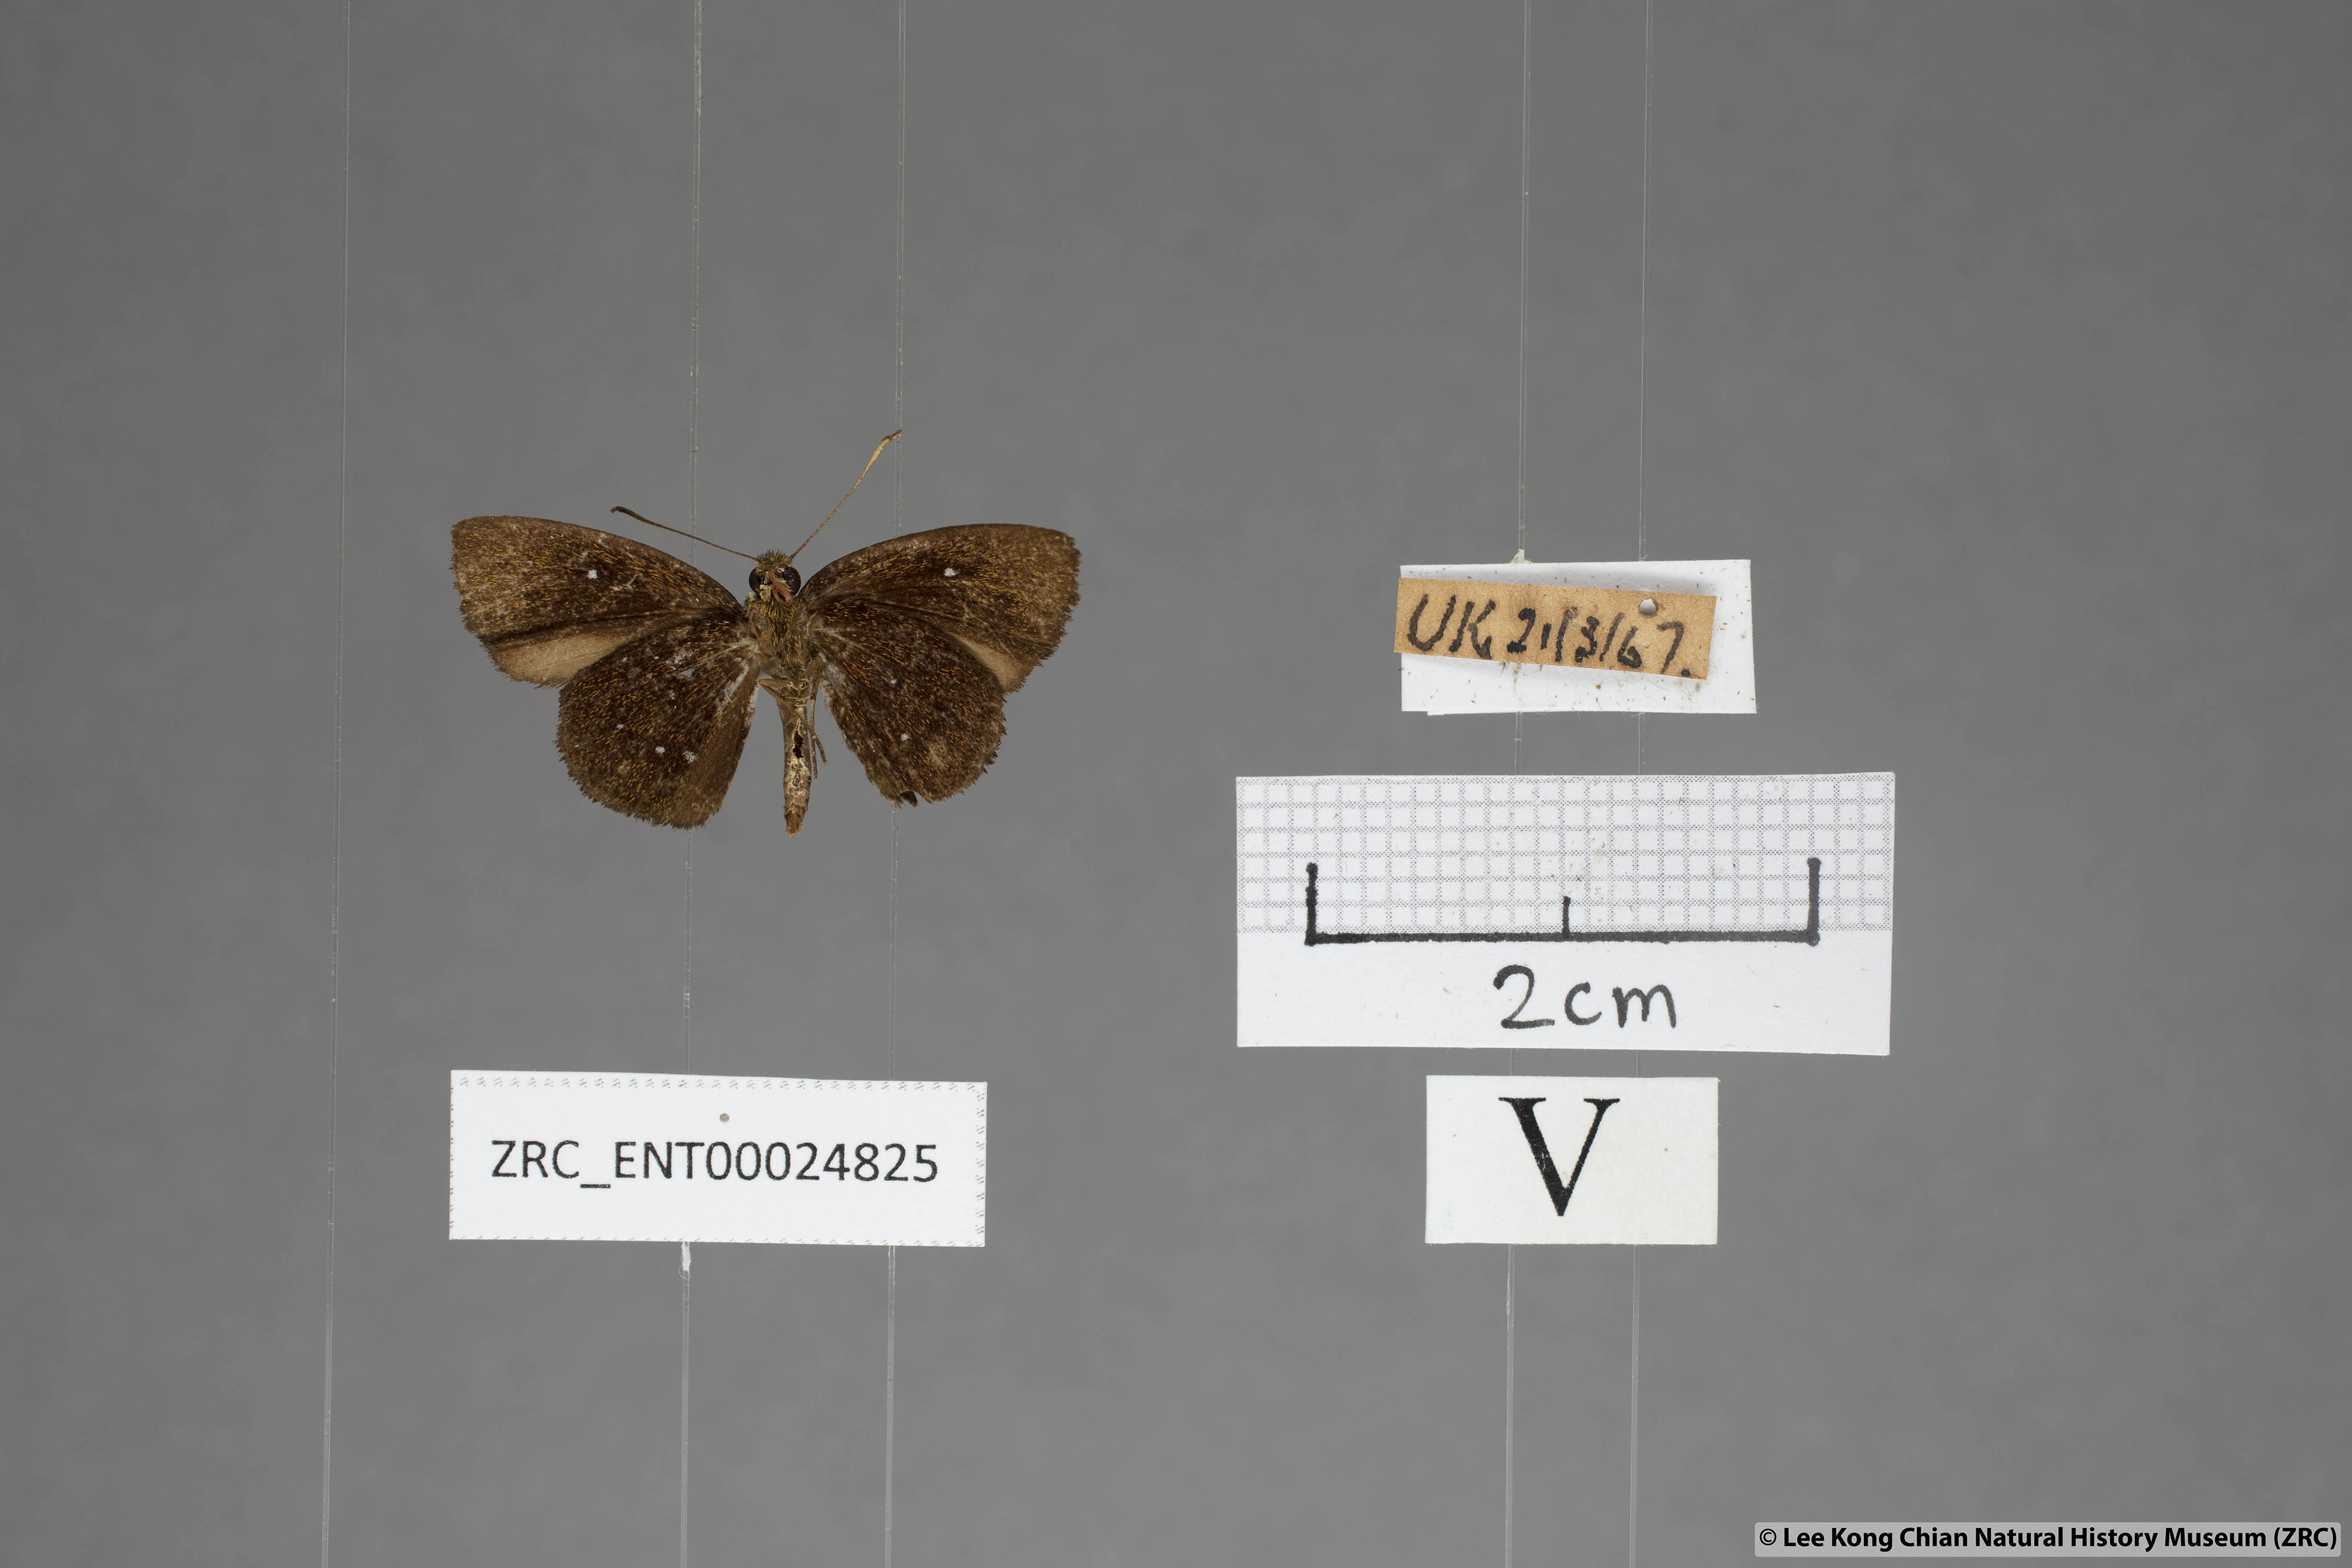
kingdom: Animalia
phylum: Arthropoda
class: Insecta
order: Lepidoptera
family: Hesperiidae
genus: Iambrix
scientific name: Iambrix stellifer
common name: Starry bob
